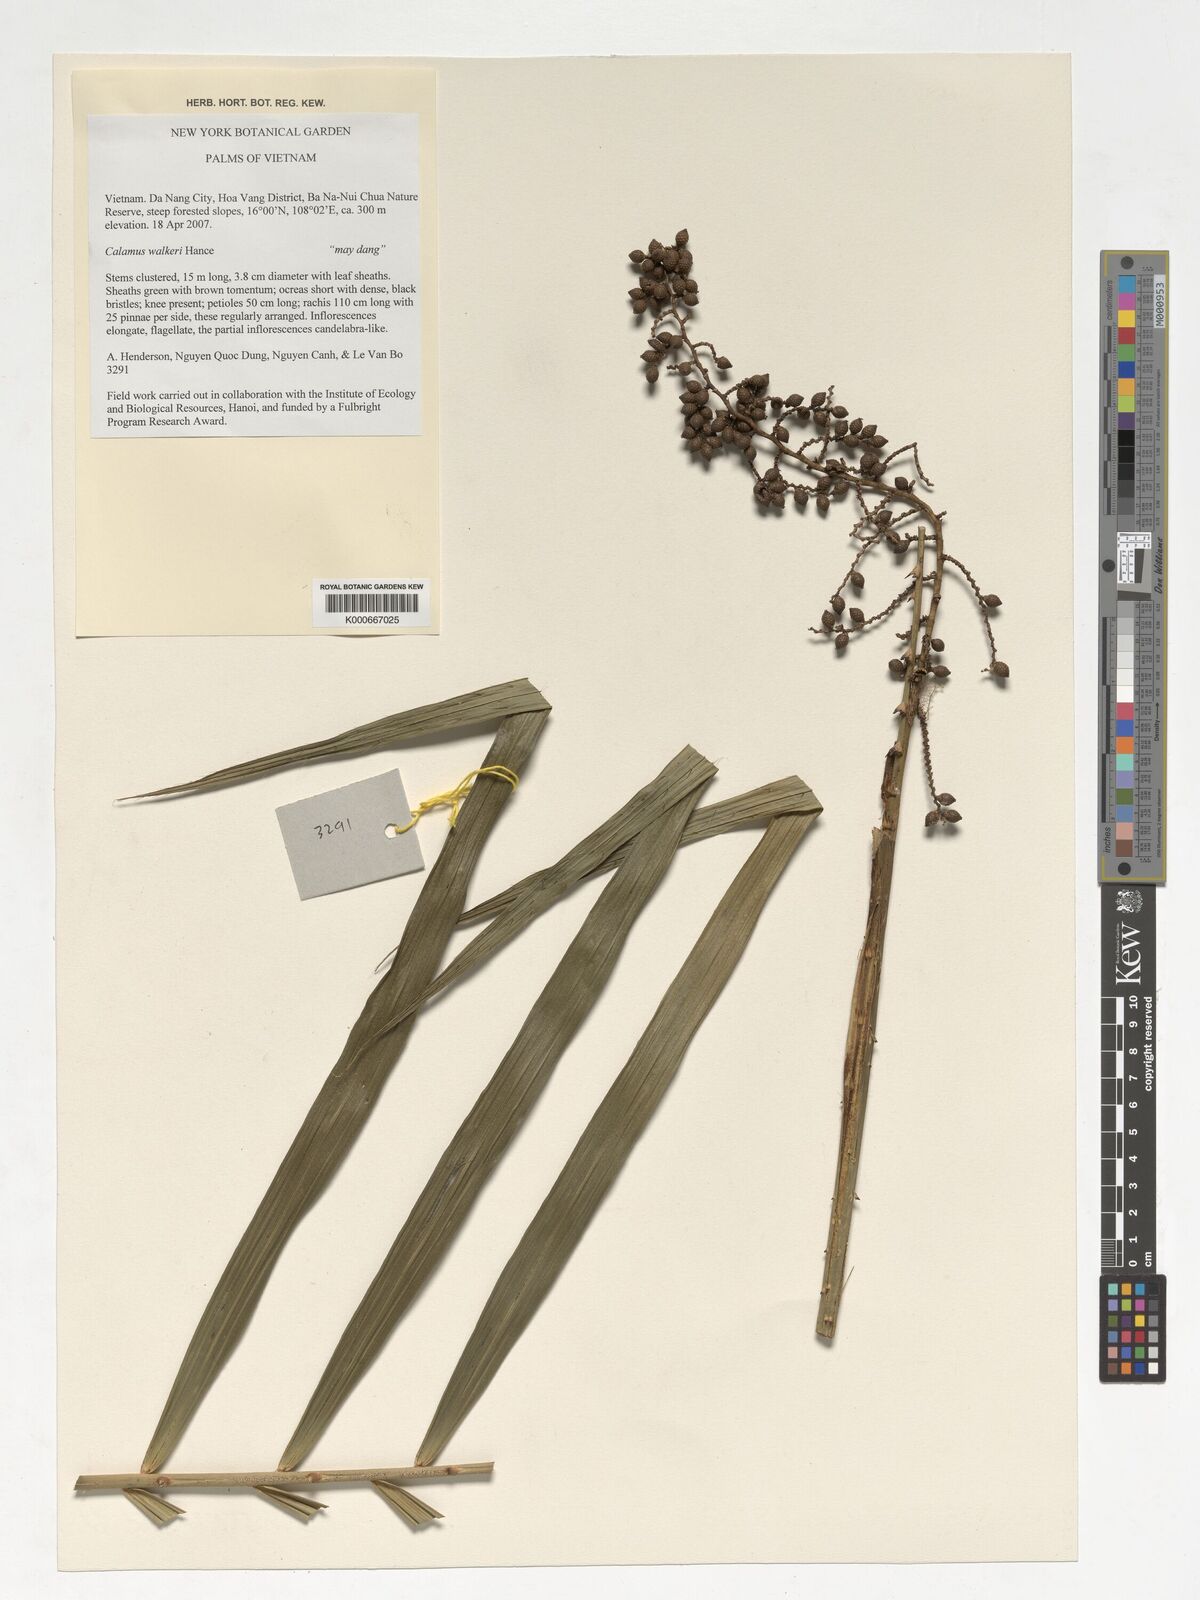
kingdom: Plantae
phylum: Tracheophyta
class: Liliopsida
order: Arecales
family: Arecaceae
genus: Calamus
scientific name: Calamus walkeri
